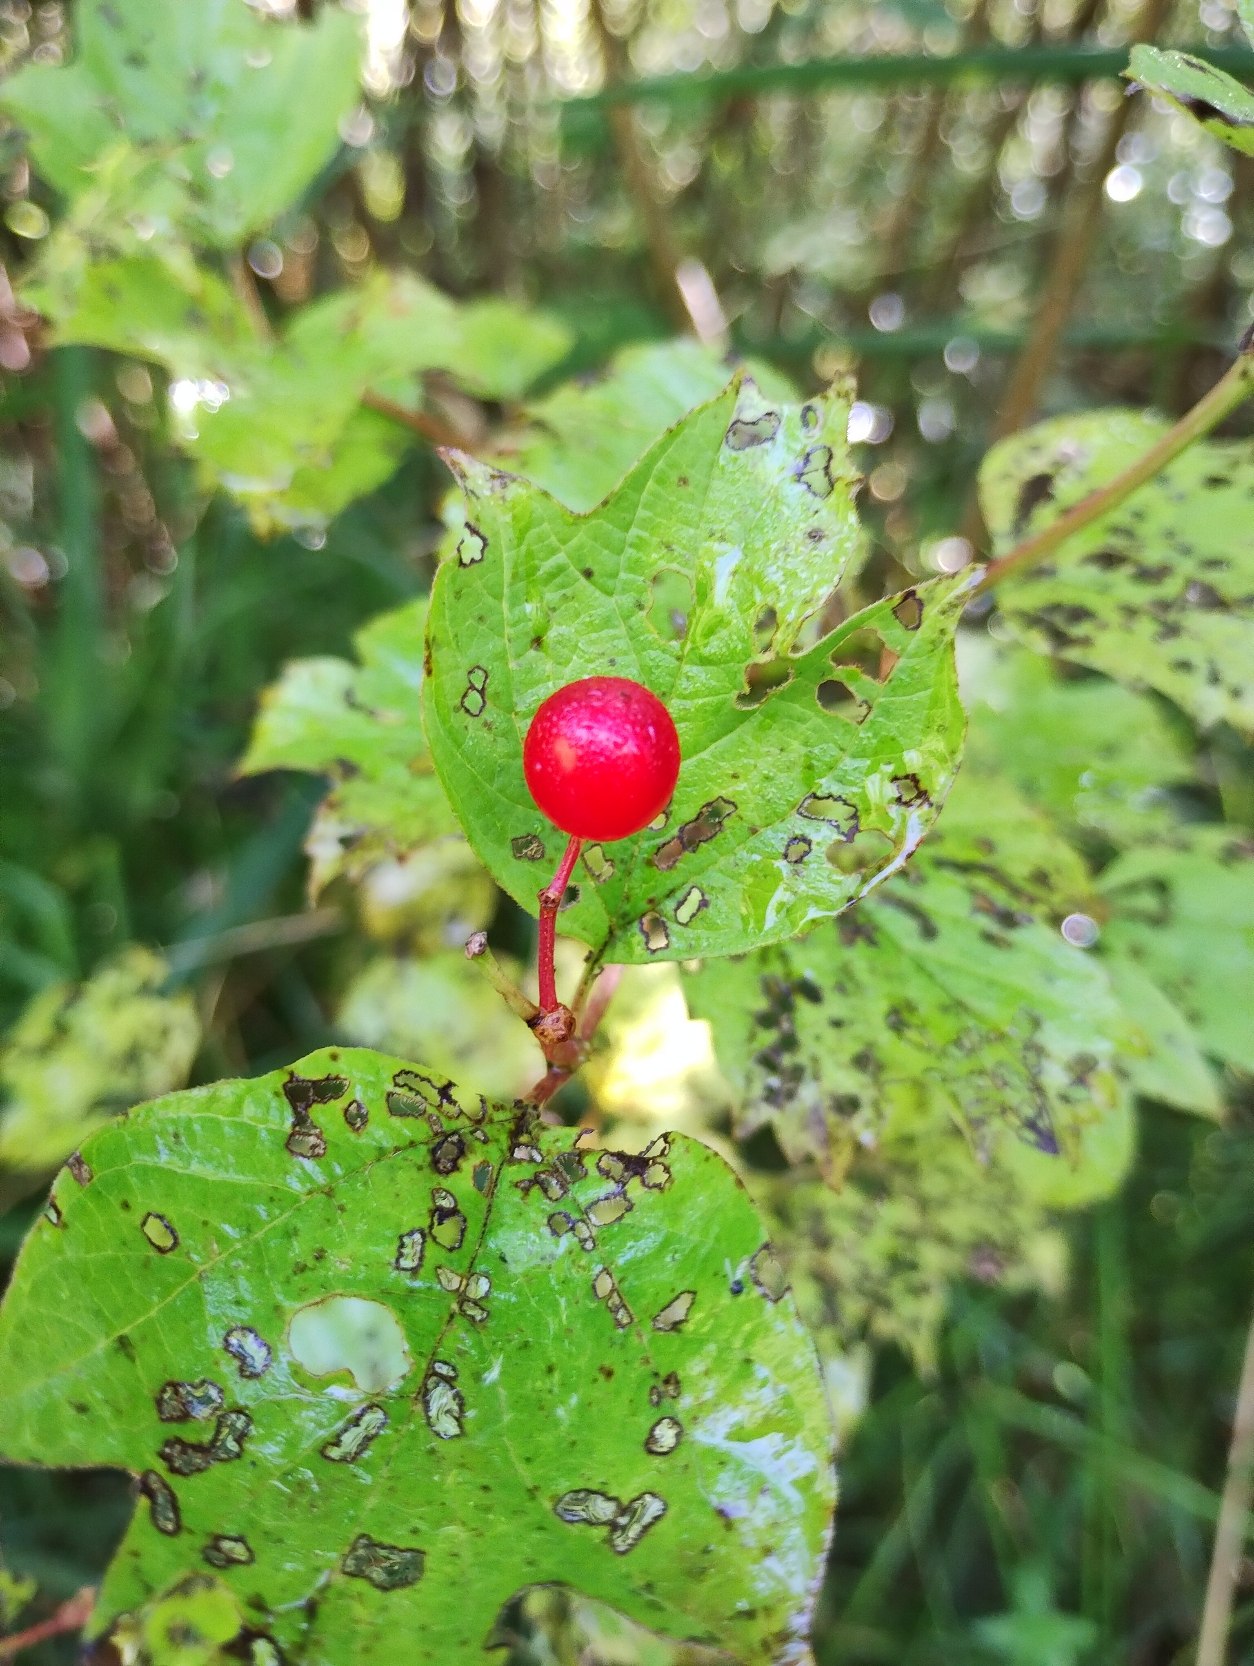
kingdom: Plantae
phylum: Tracheophyta
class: Magnoliopsida
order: Dipsacales
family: Viburnaceae
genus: Viburnum
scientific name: Viburnum opulus
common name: Kvalkved
